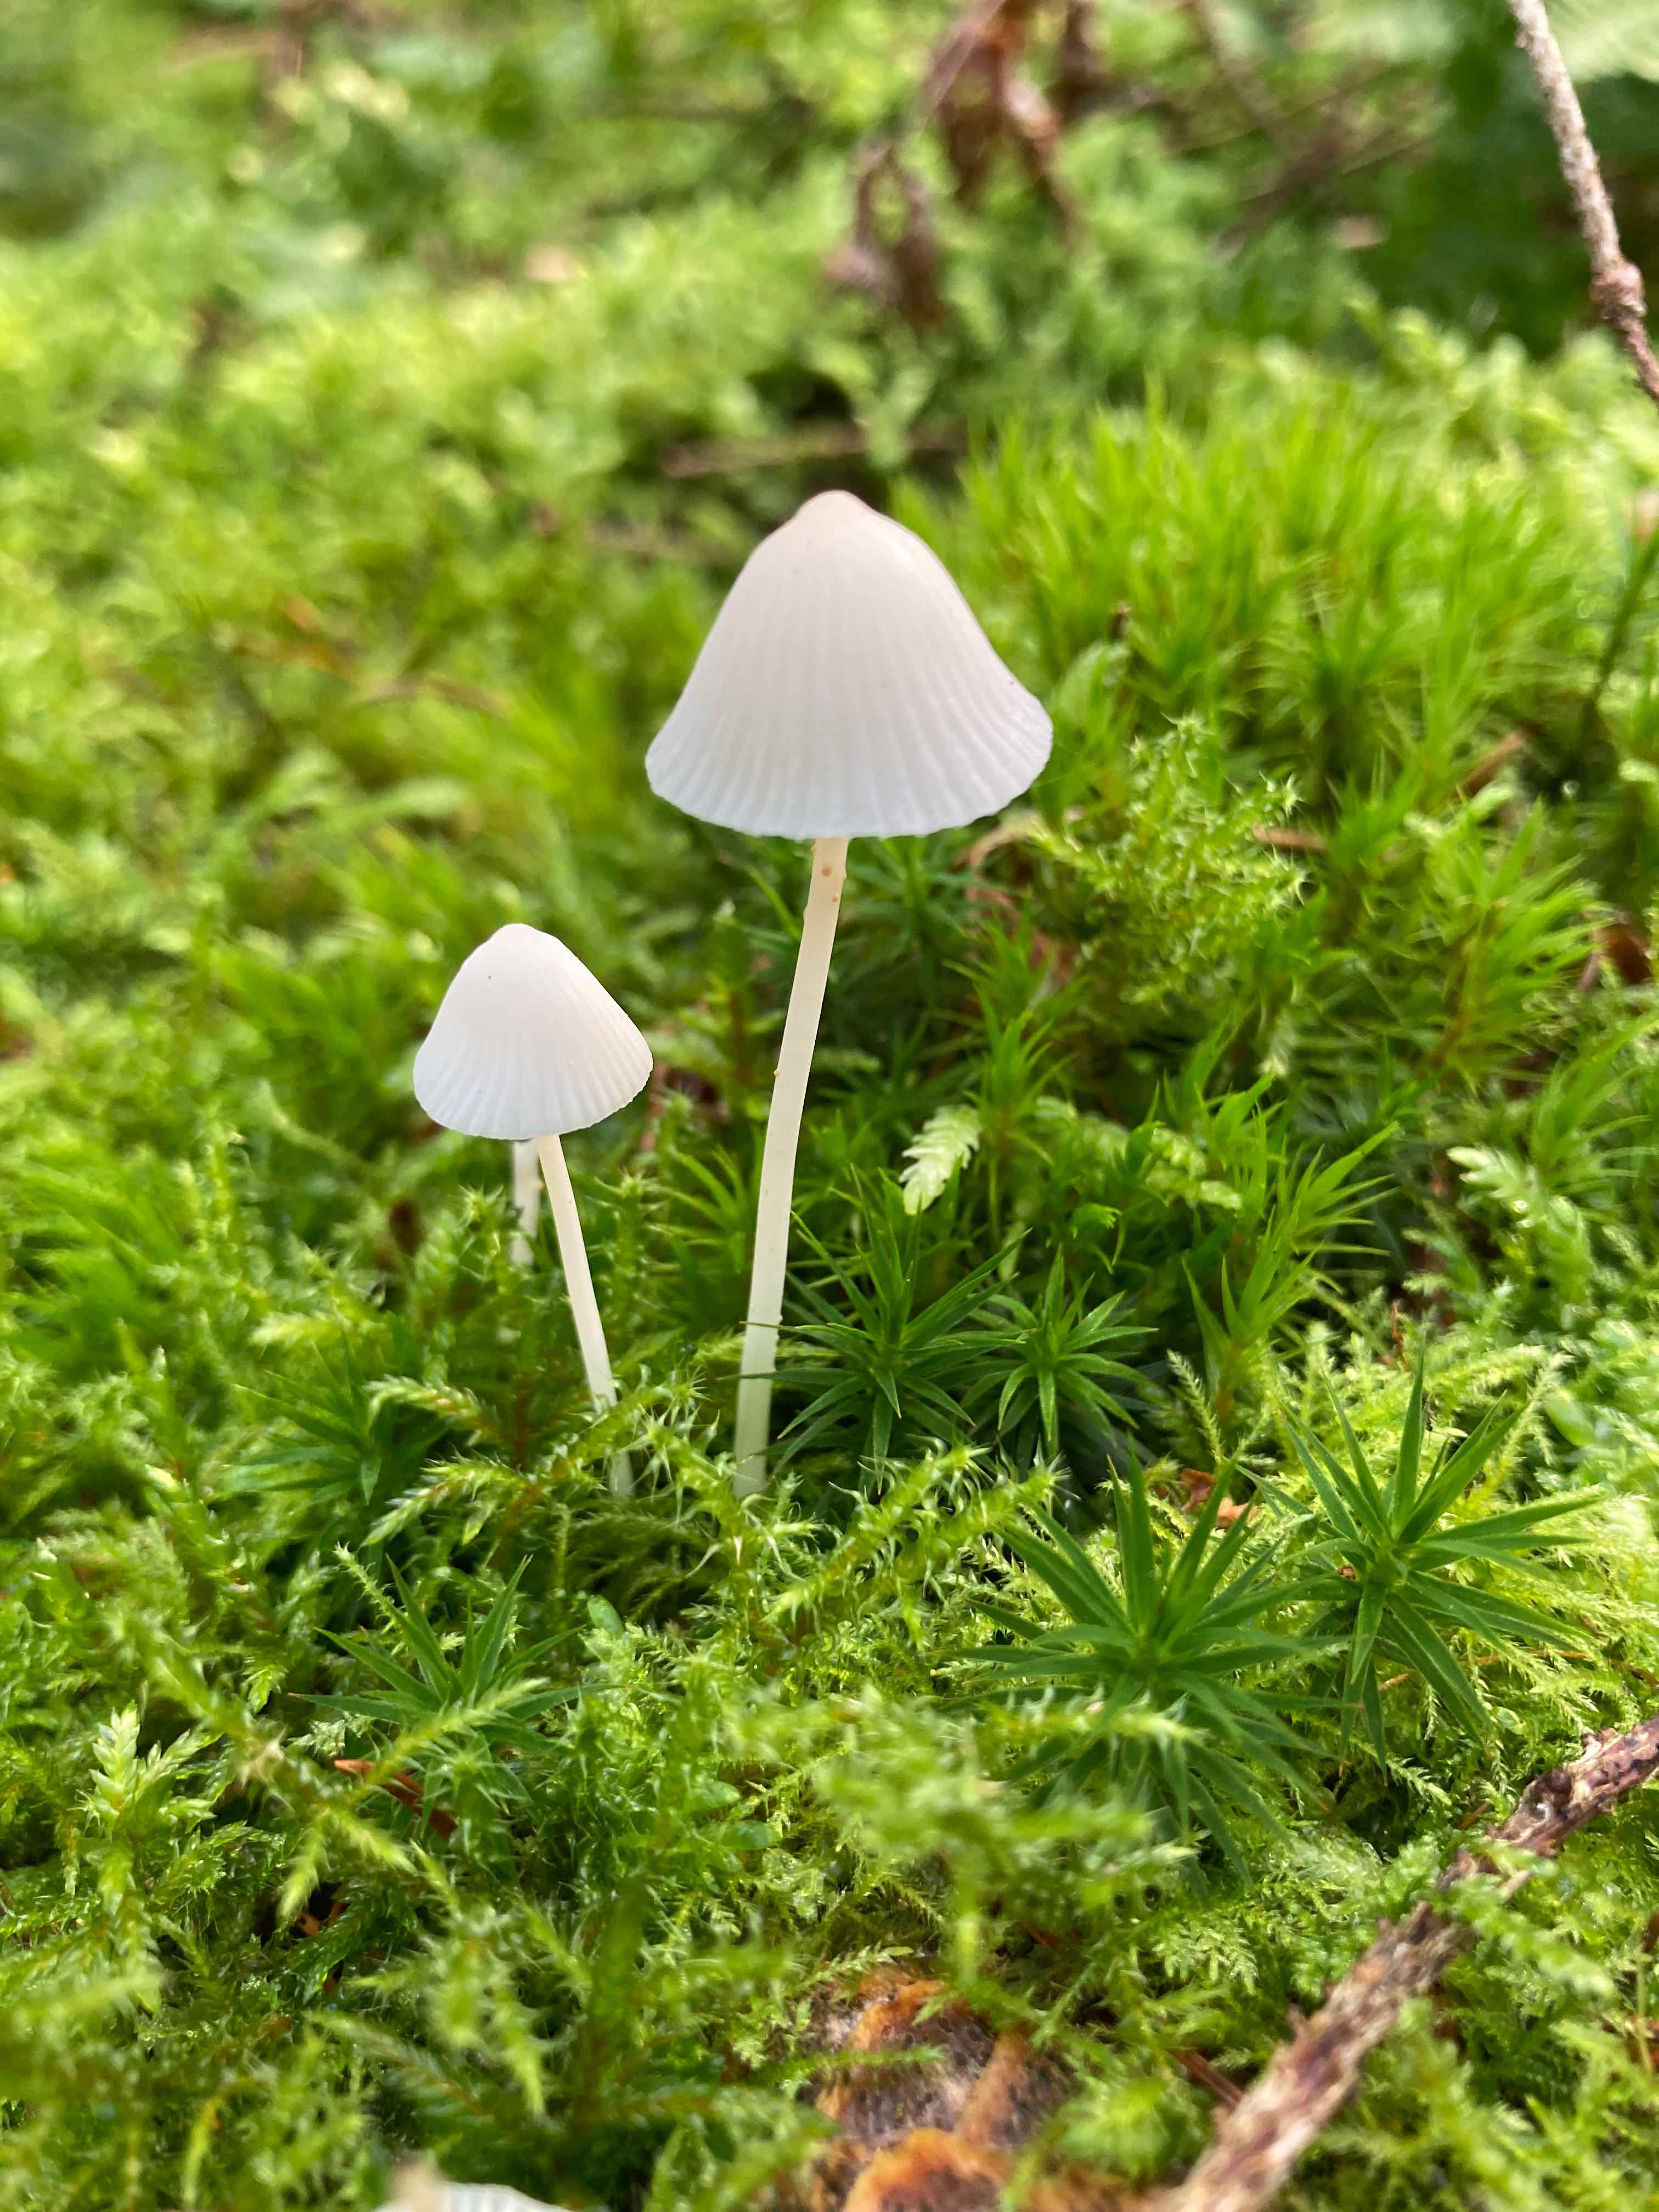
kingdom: Fungi
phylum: Basidiomycota
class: Agaricomycetes
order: Agaricales
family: Mycenaceae
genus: Mycena
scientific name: Mycena galopus
